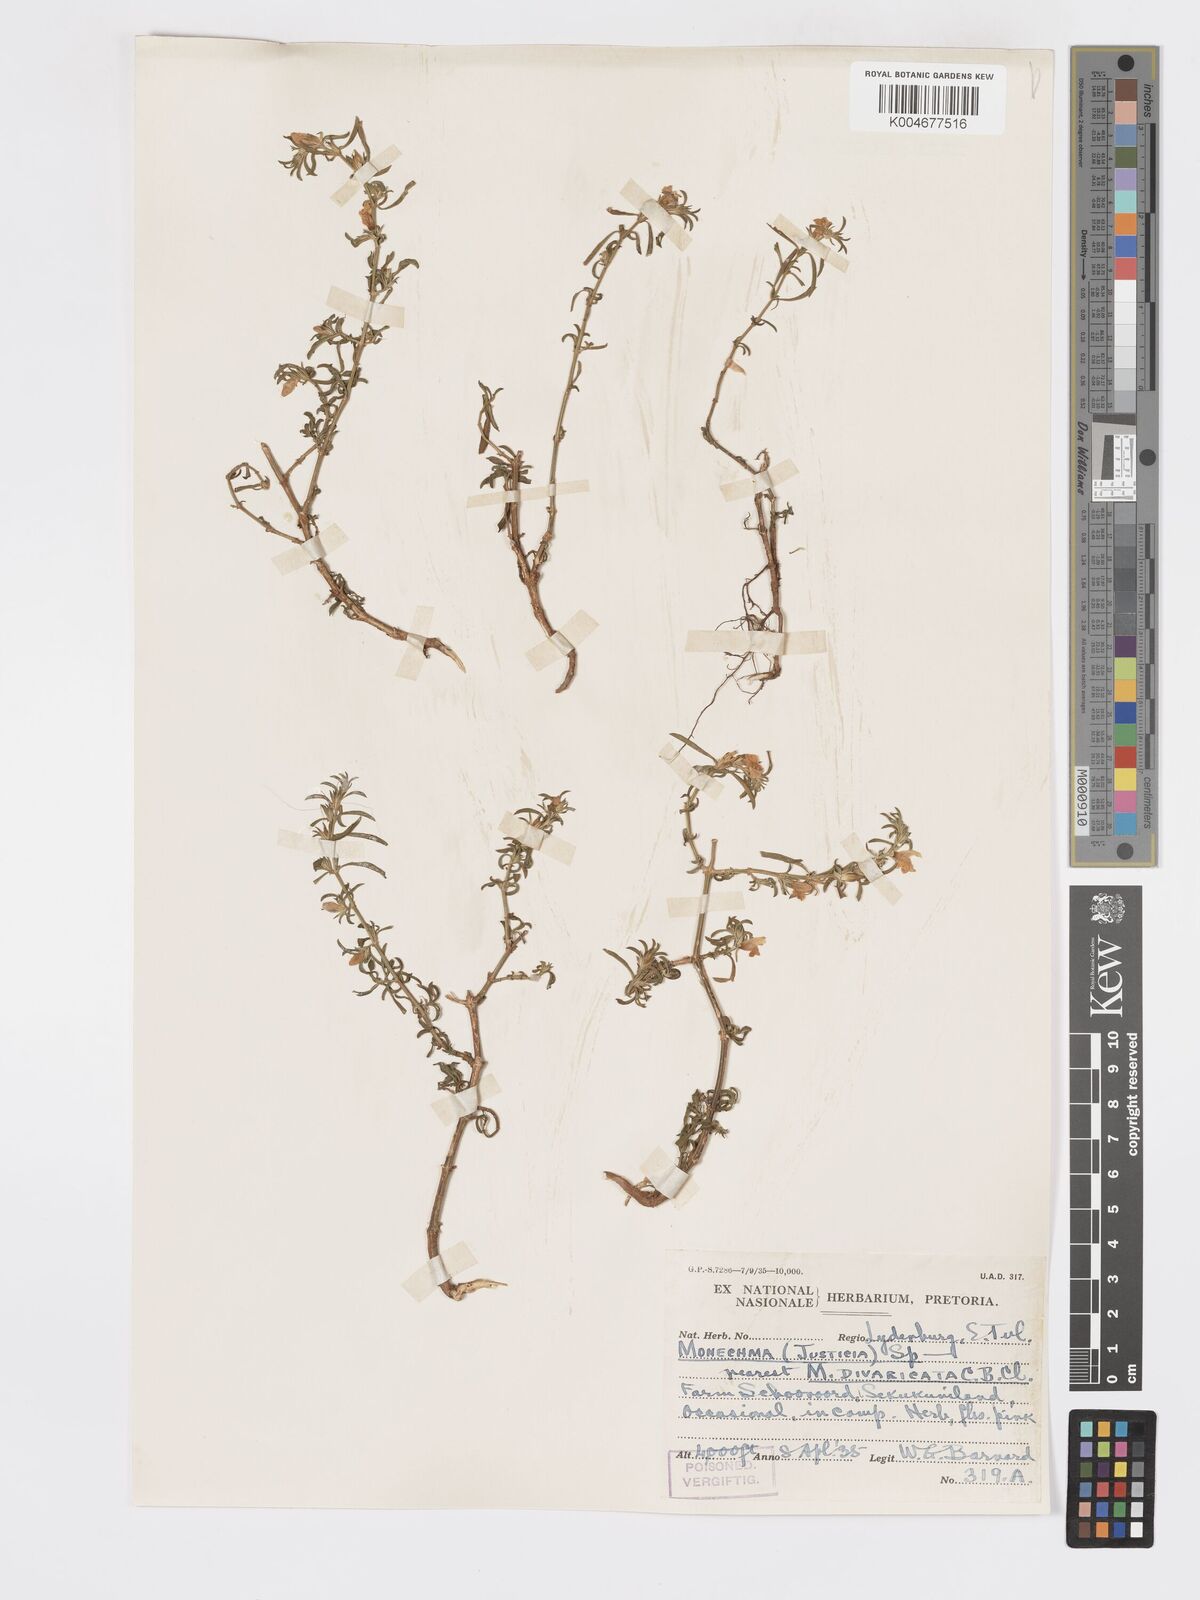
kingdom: Plantae
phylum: Tracheophyta
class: Magnoliopsida
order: Lamiales
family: Acanthaceae
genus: Pogonospermum
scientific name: Pogonospermum
